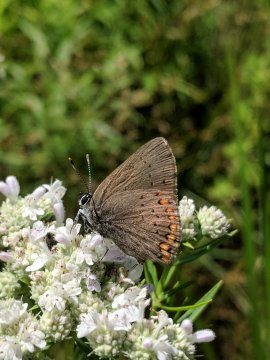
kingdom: Animalia
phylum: Arthropoda
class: Insecta
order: Lepidoptera
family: Lycaenidae
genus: Harkenclenus
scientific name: Harkenclenus titus
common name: Coral Hairstreak
